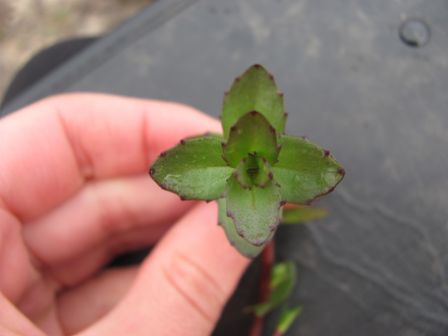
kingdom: Plantae
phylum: Tracheophyta
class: Magnoliopsida
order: Gentianales
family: Rubiaceae
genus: Coprosma
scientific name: Coprosma microcarpa
